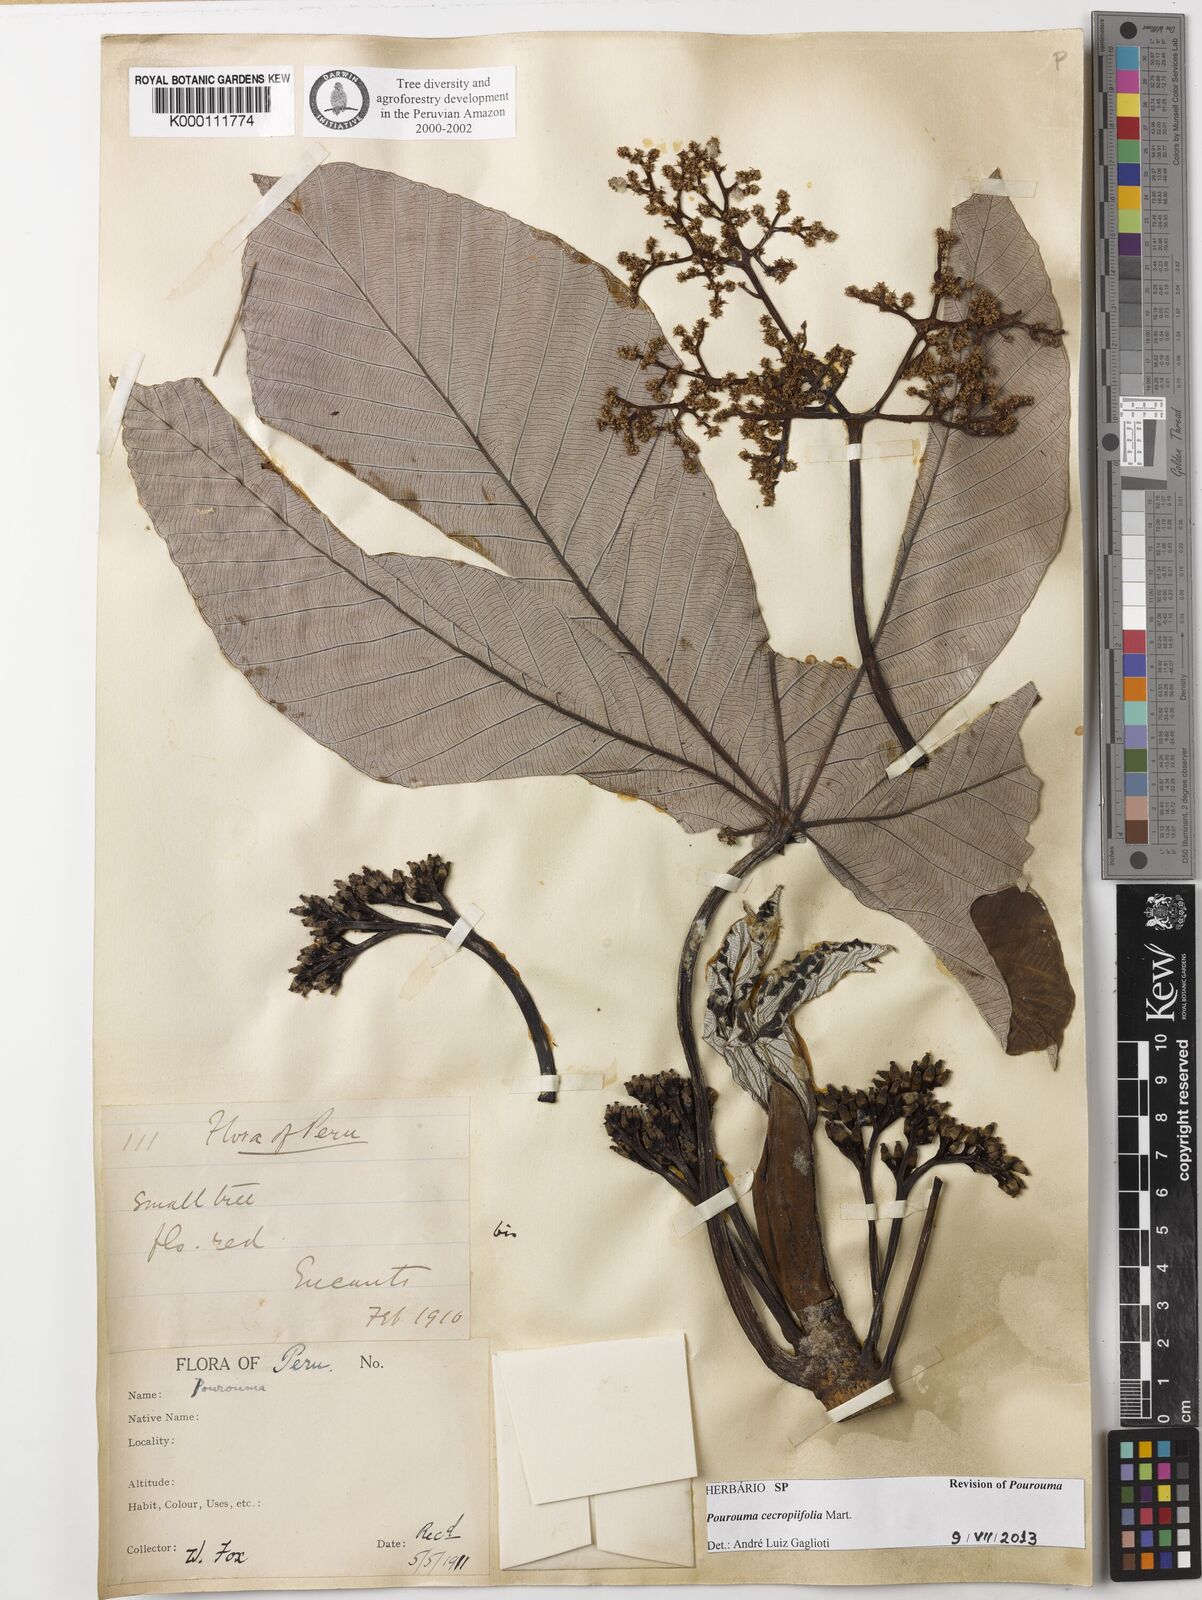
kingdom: Plantae
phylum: Tracheophyta
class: Magnoliopsida
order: Rosales
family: Urticaceae
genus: Pourouma
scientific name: Pourouma cecropiifolia
